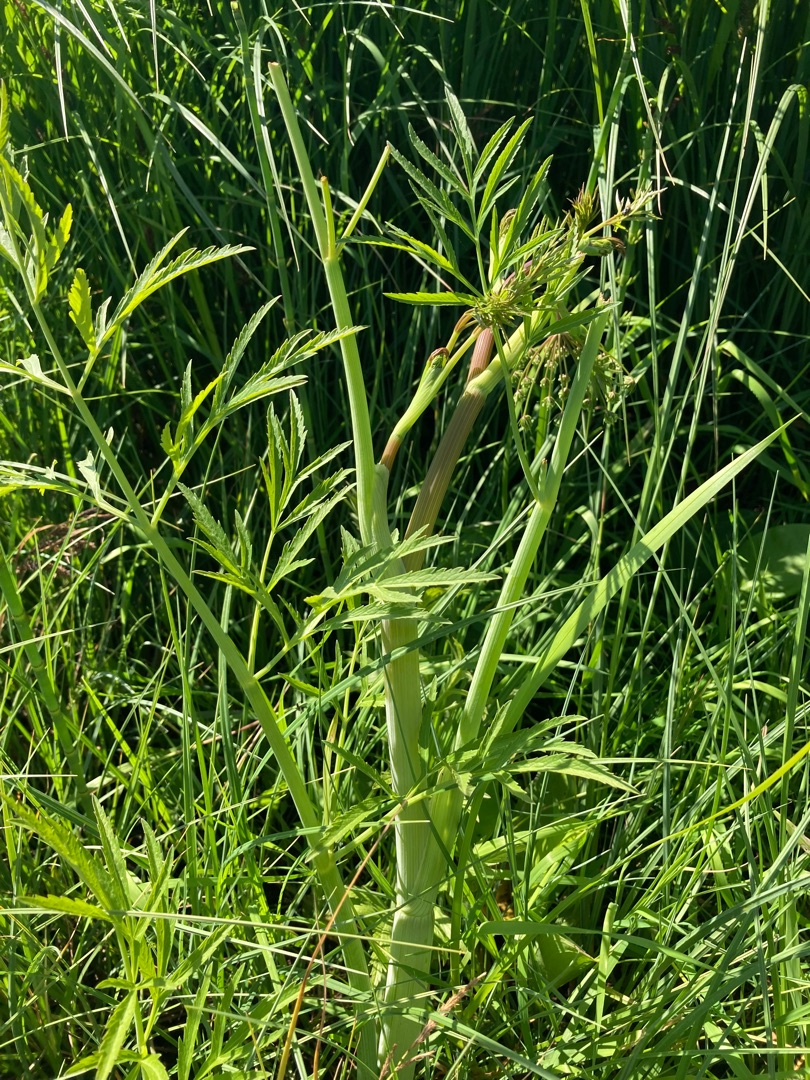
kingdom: Plantae
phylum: Tracheophyta
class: Magnoliopsida
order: Apiales
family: Apiaceae
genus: Cicuta
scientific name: Cicuta virosa
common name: Gifttyde
